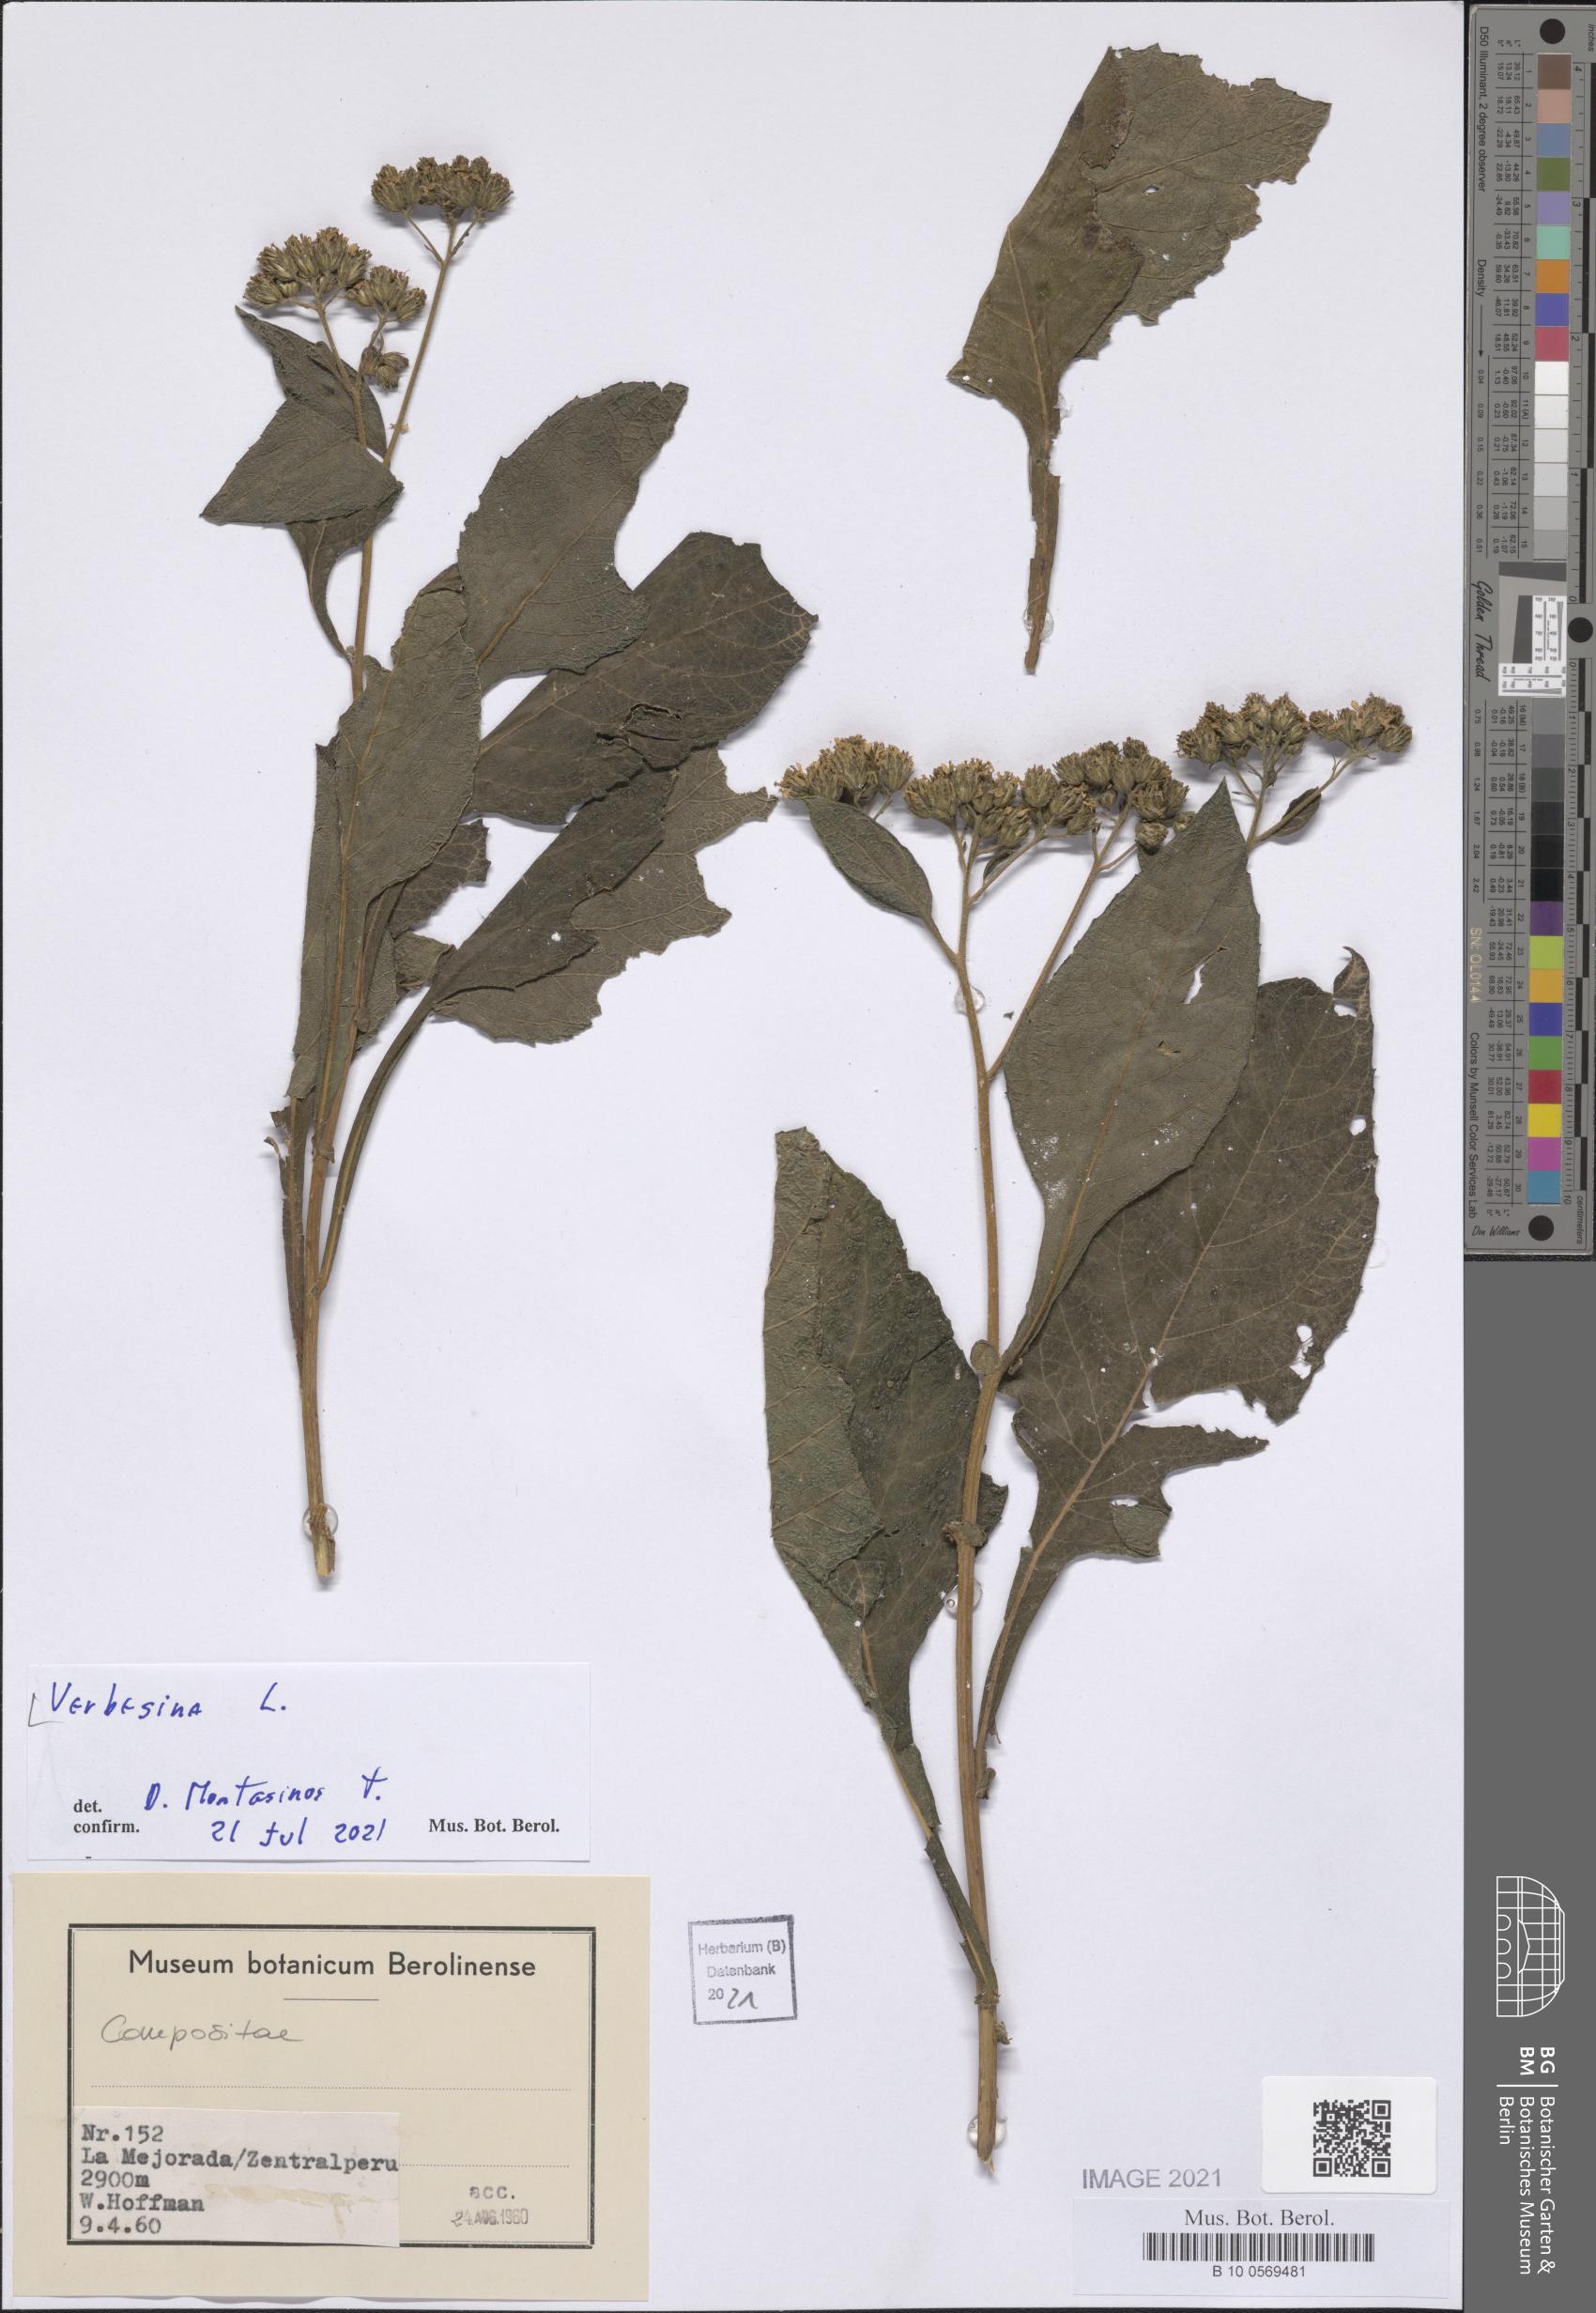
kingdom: Plantae
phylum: Tracheophyta
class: Magnoliopsida
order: Asterales
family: Asteraceae
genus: Verbesina
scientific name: Verbesina
